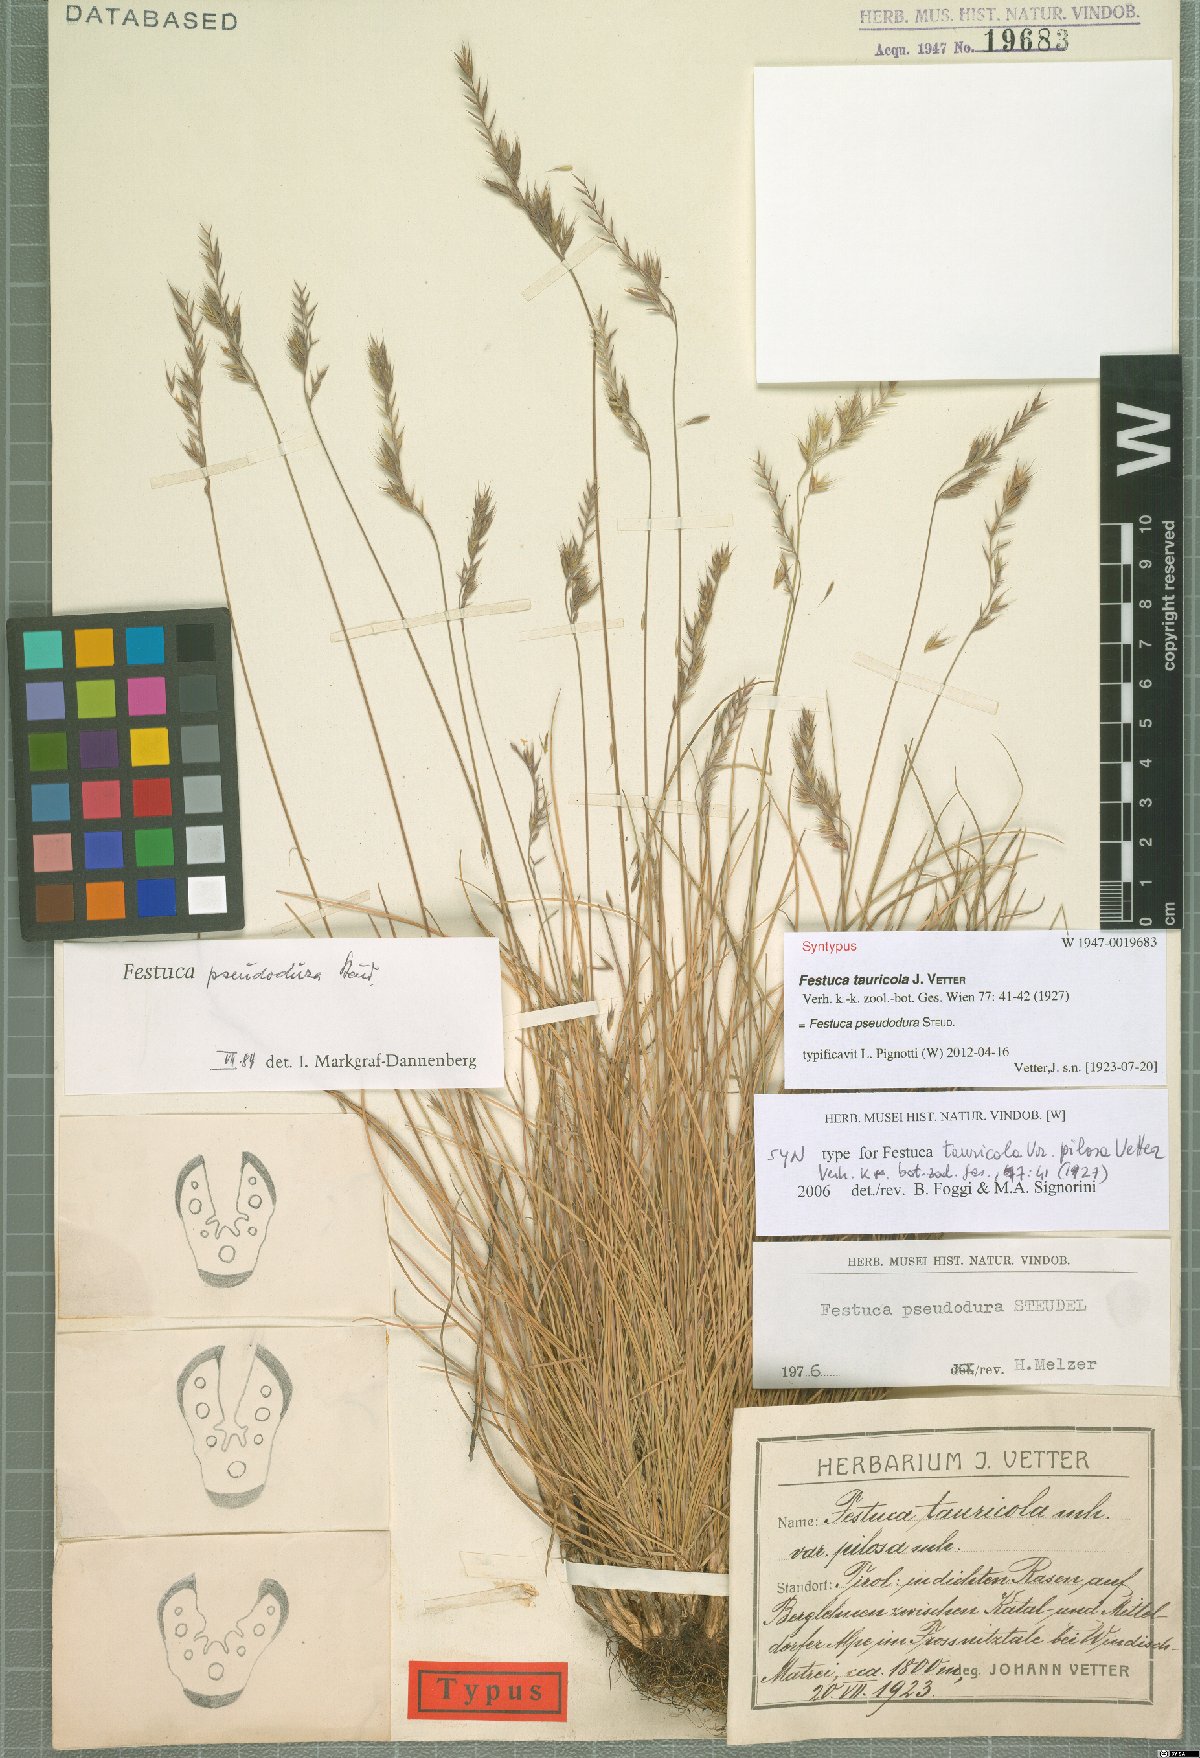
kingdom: Plantae
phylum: Tracheophyta
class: Liliopsida
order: Poales
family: Poaceae
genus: Festuca
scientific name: Festuca pseudodura
